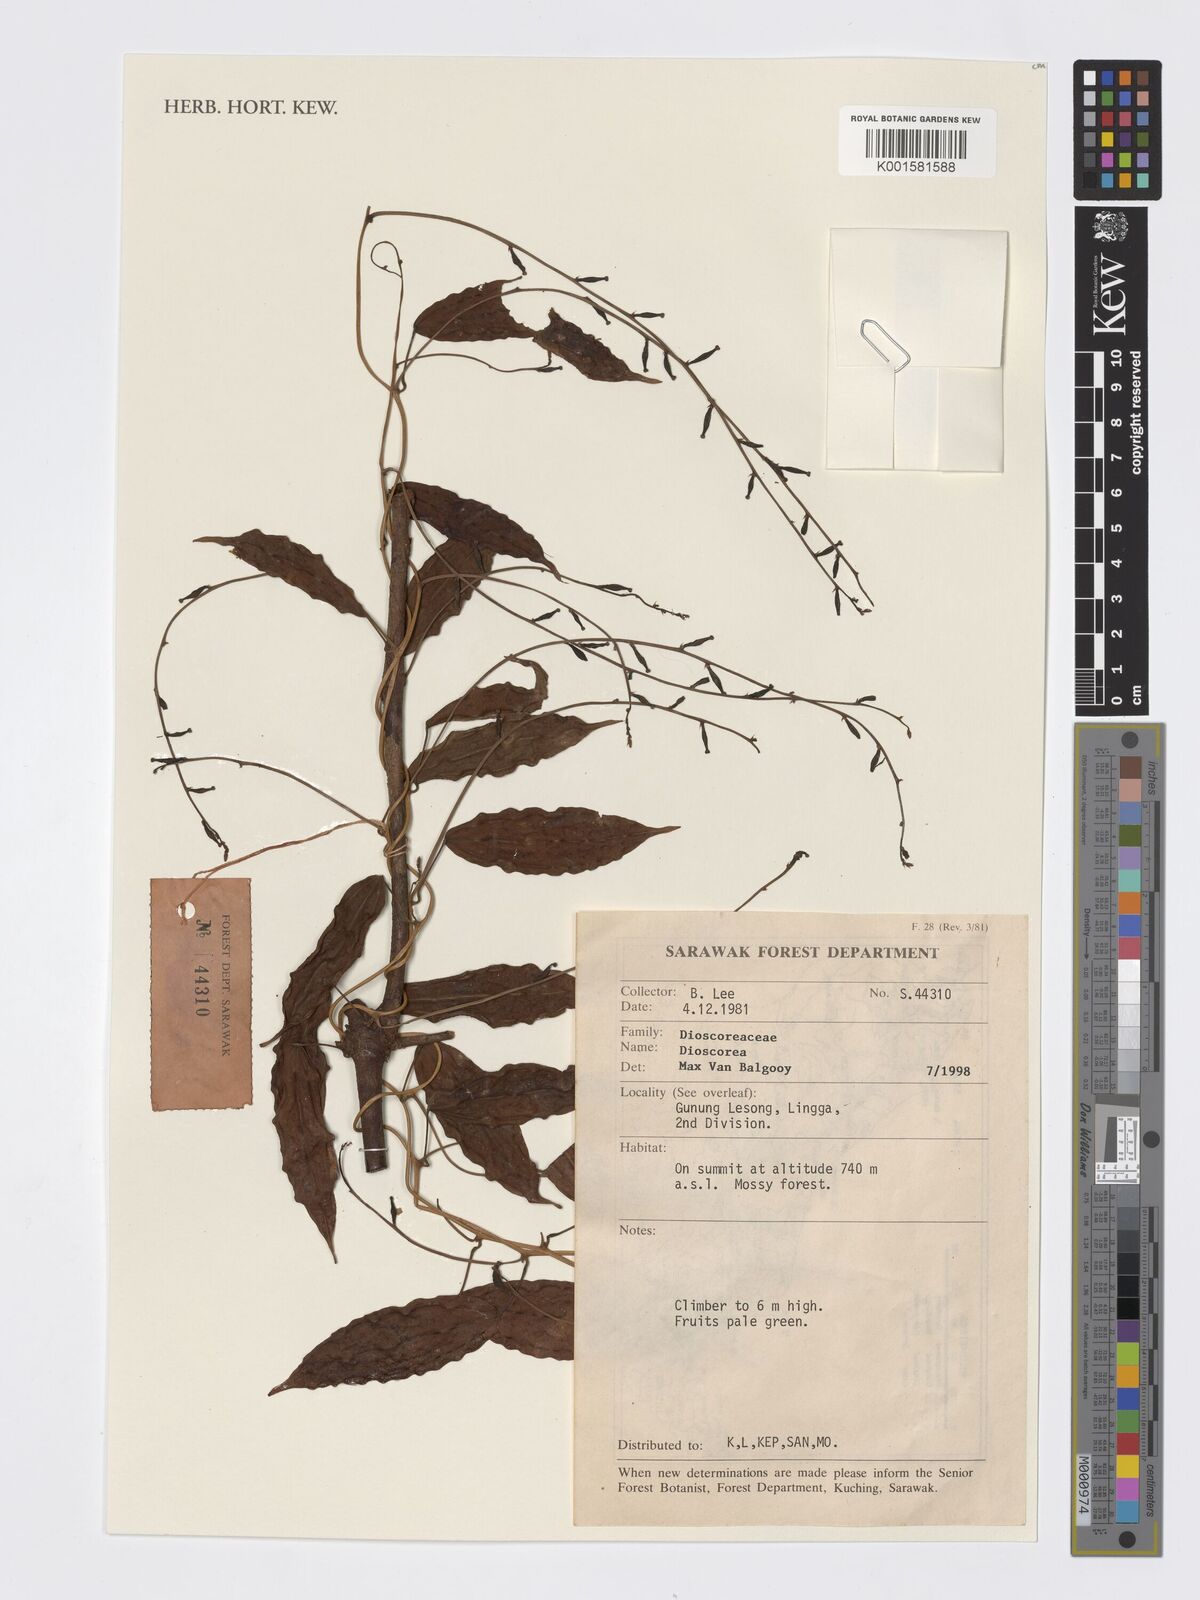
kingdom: Plantae
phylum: Tracheophyta
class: Liliopsida
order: Dioscoreales
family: Dioscoreaceae
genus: Dioscorea
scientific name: Dioscorea
